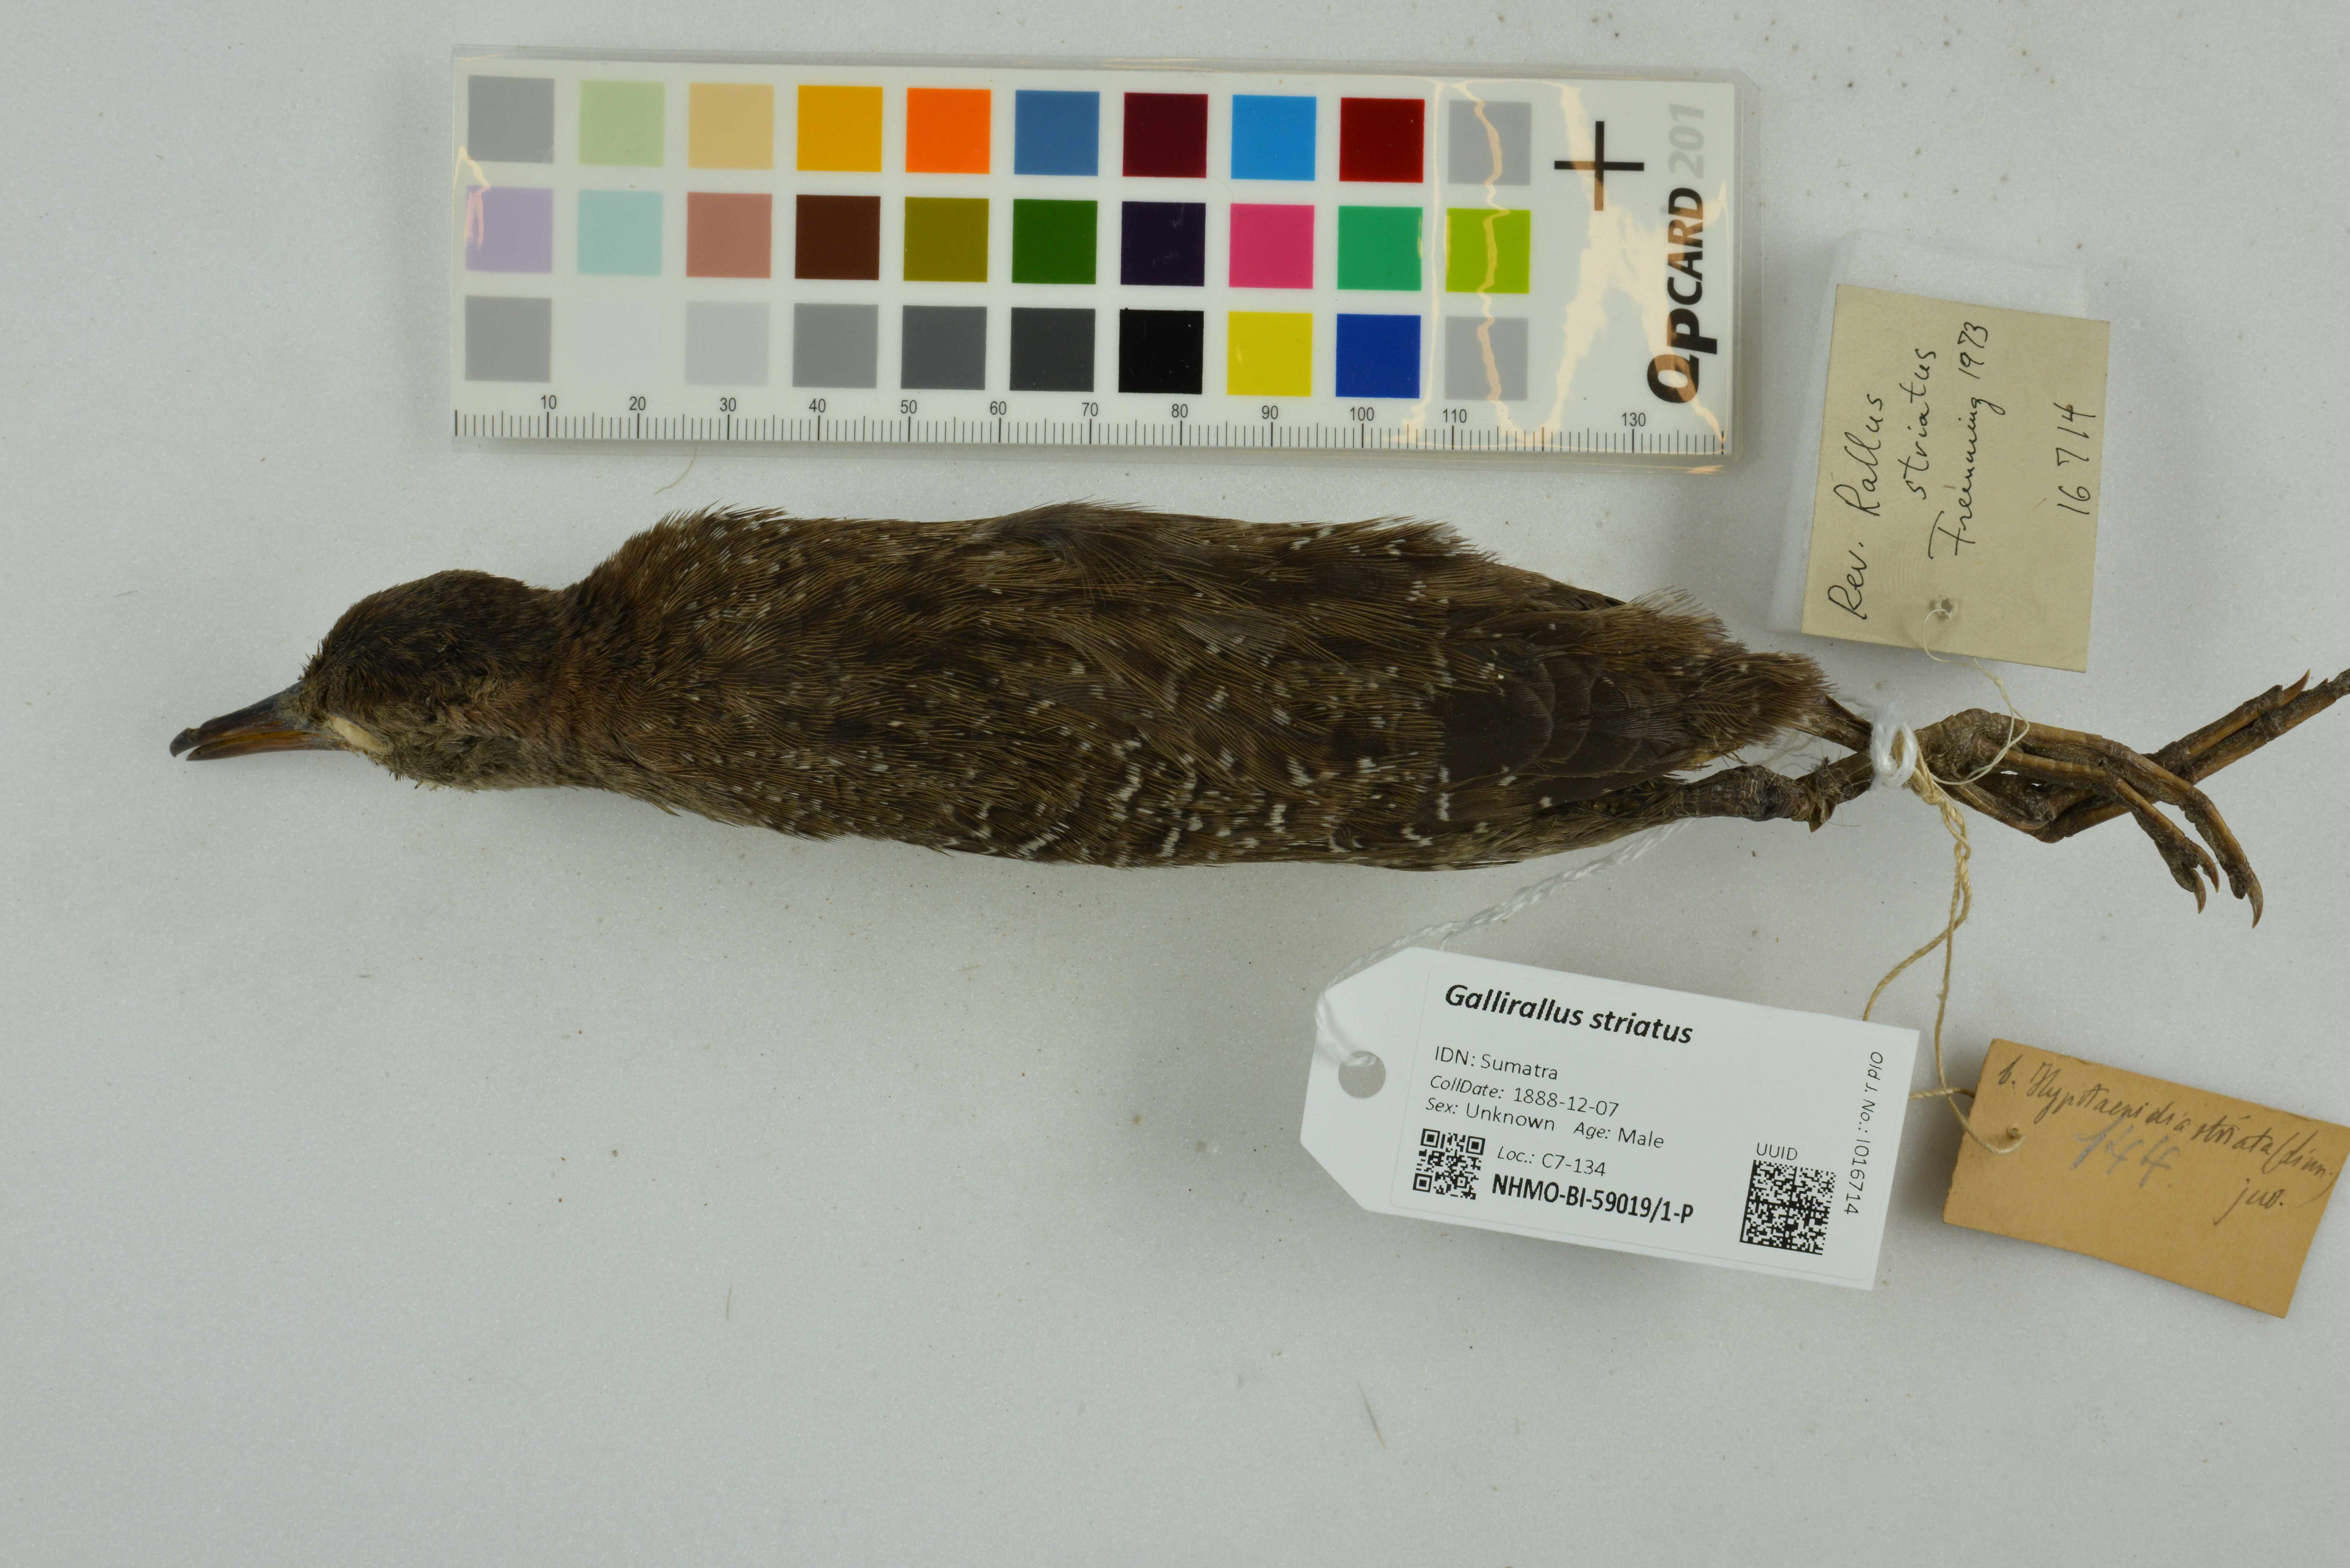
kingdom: Animalia
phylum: Chordata
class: Aves
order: Gruiformes
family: Rallidae
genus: Gallirallus
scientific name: Gallirallus striatus
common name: Slaty-breasted rail
